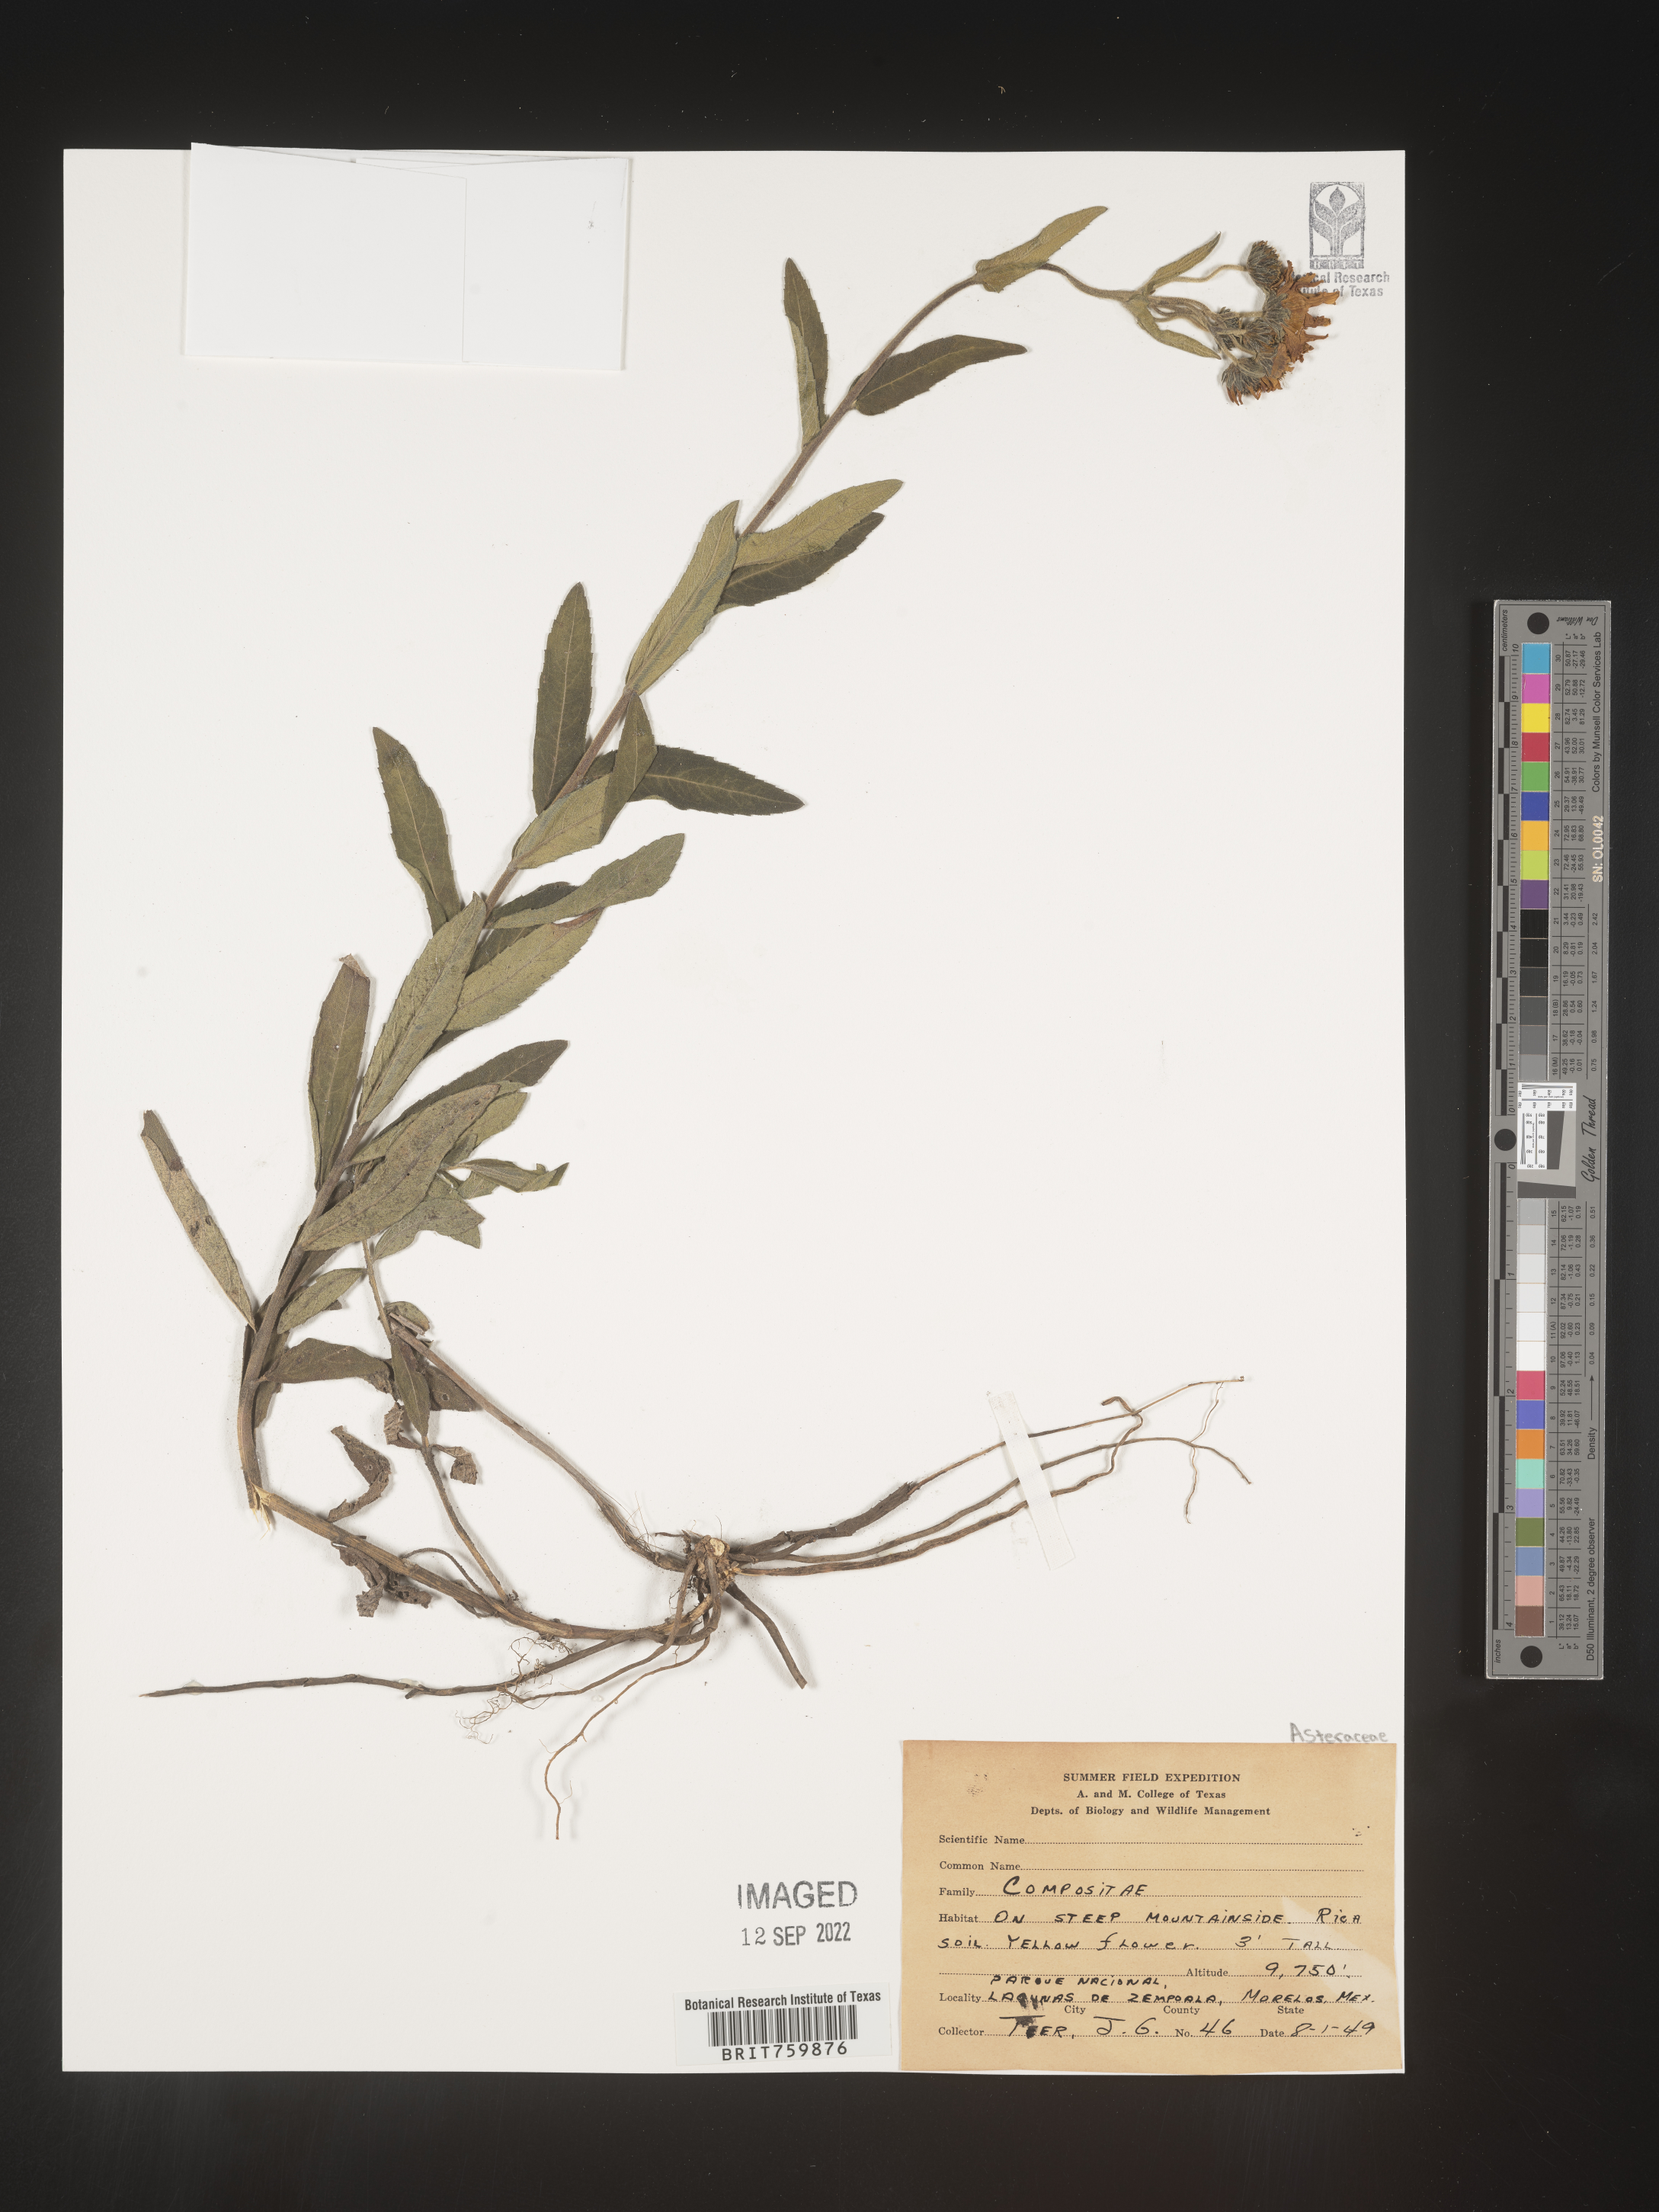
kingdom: Plantae
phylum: Tracheophyta
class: Magnoliopsida
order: Asterales
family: Asteraceae
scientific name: Asteraceae
